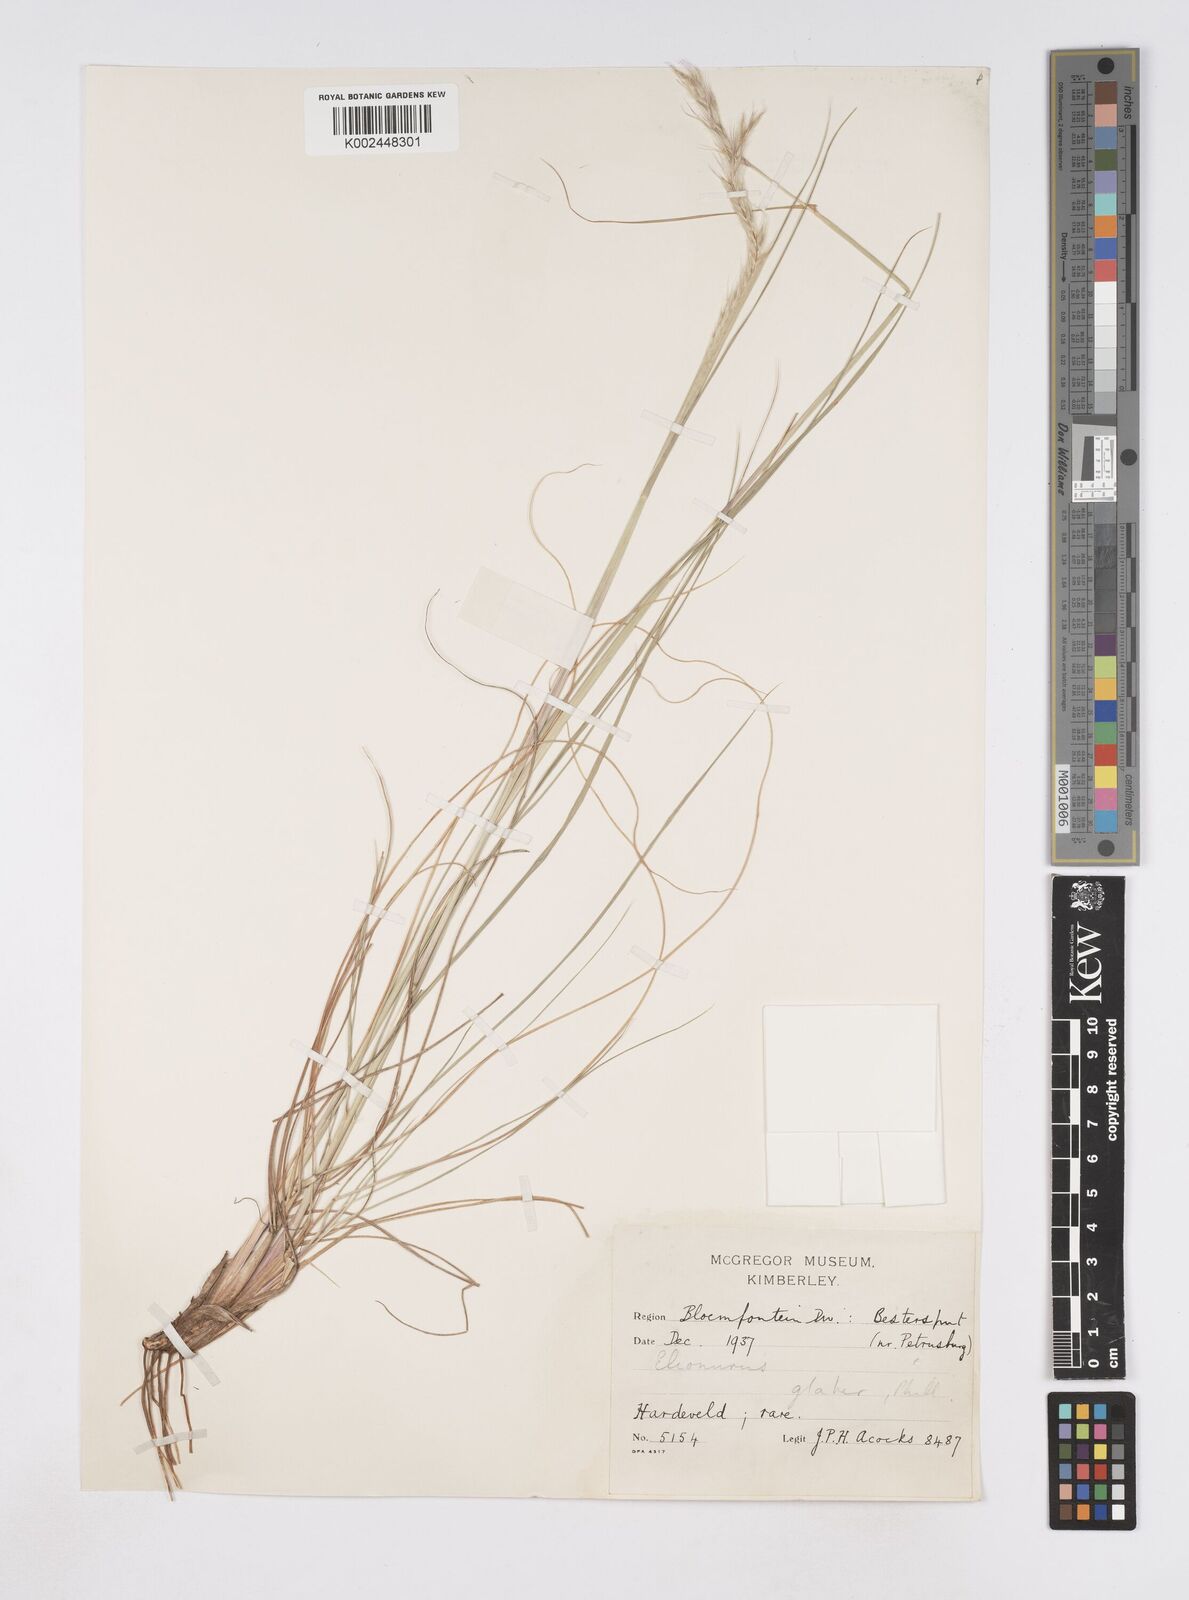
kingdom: Plantae
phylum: Tracheophyta
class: Liliopsida
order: Poales
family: Poaceae
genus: Elionurus
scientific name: Elionurus muticus
